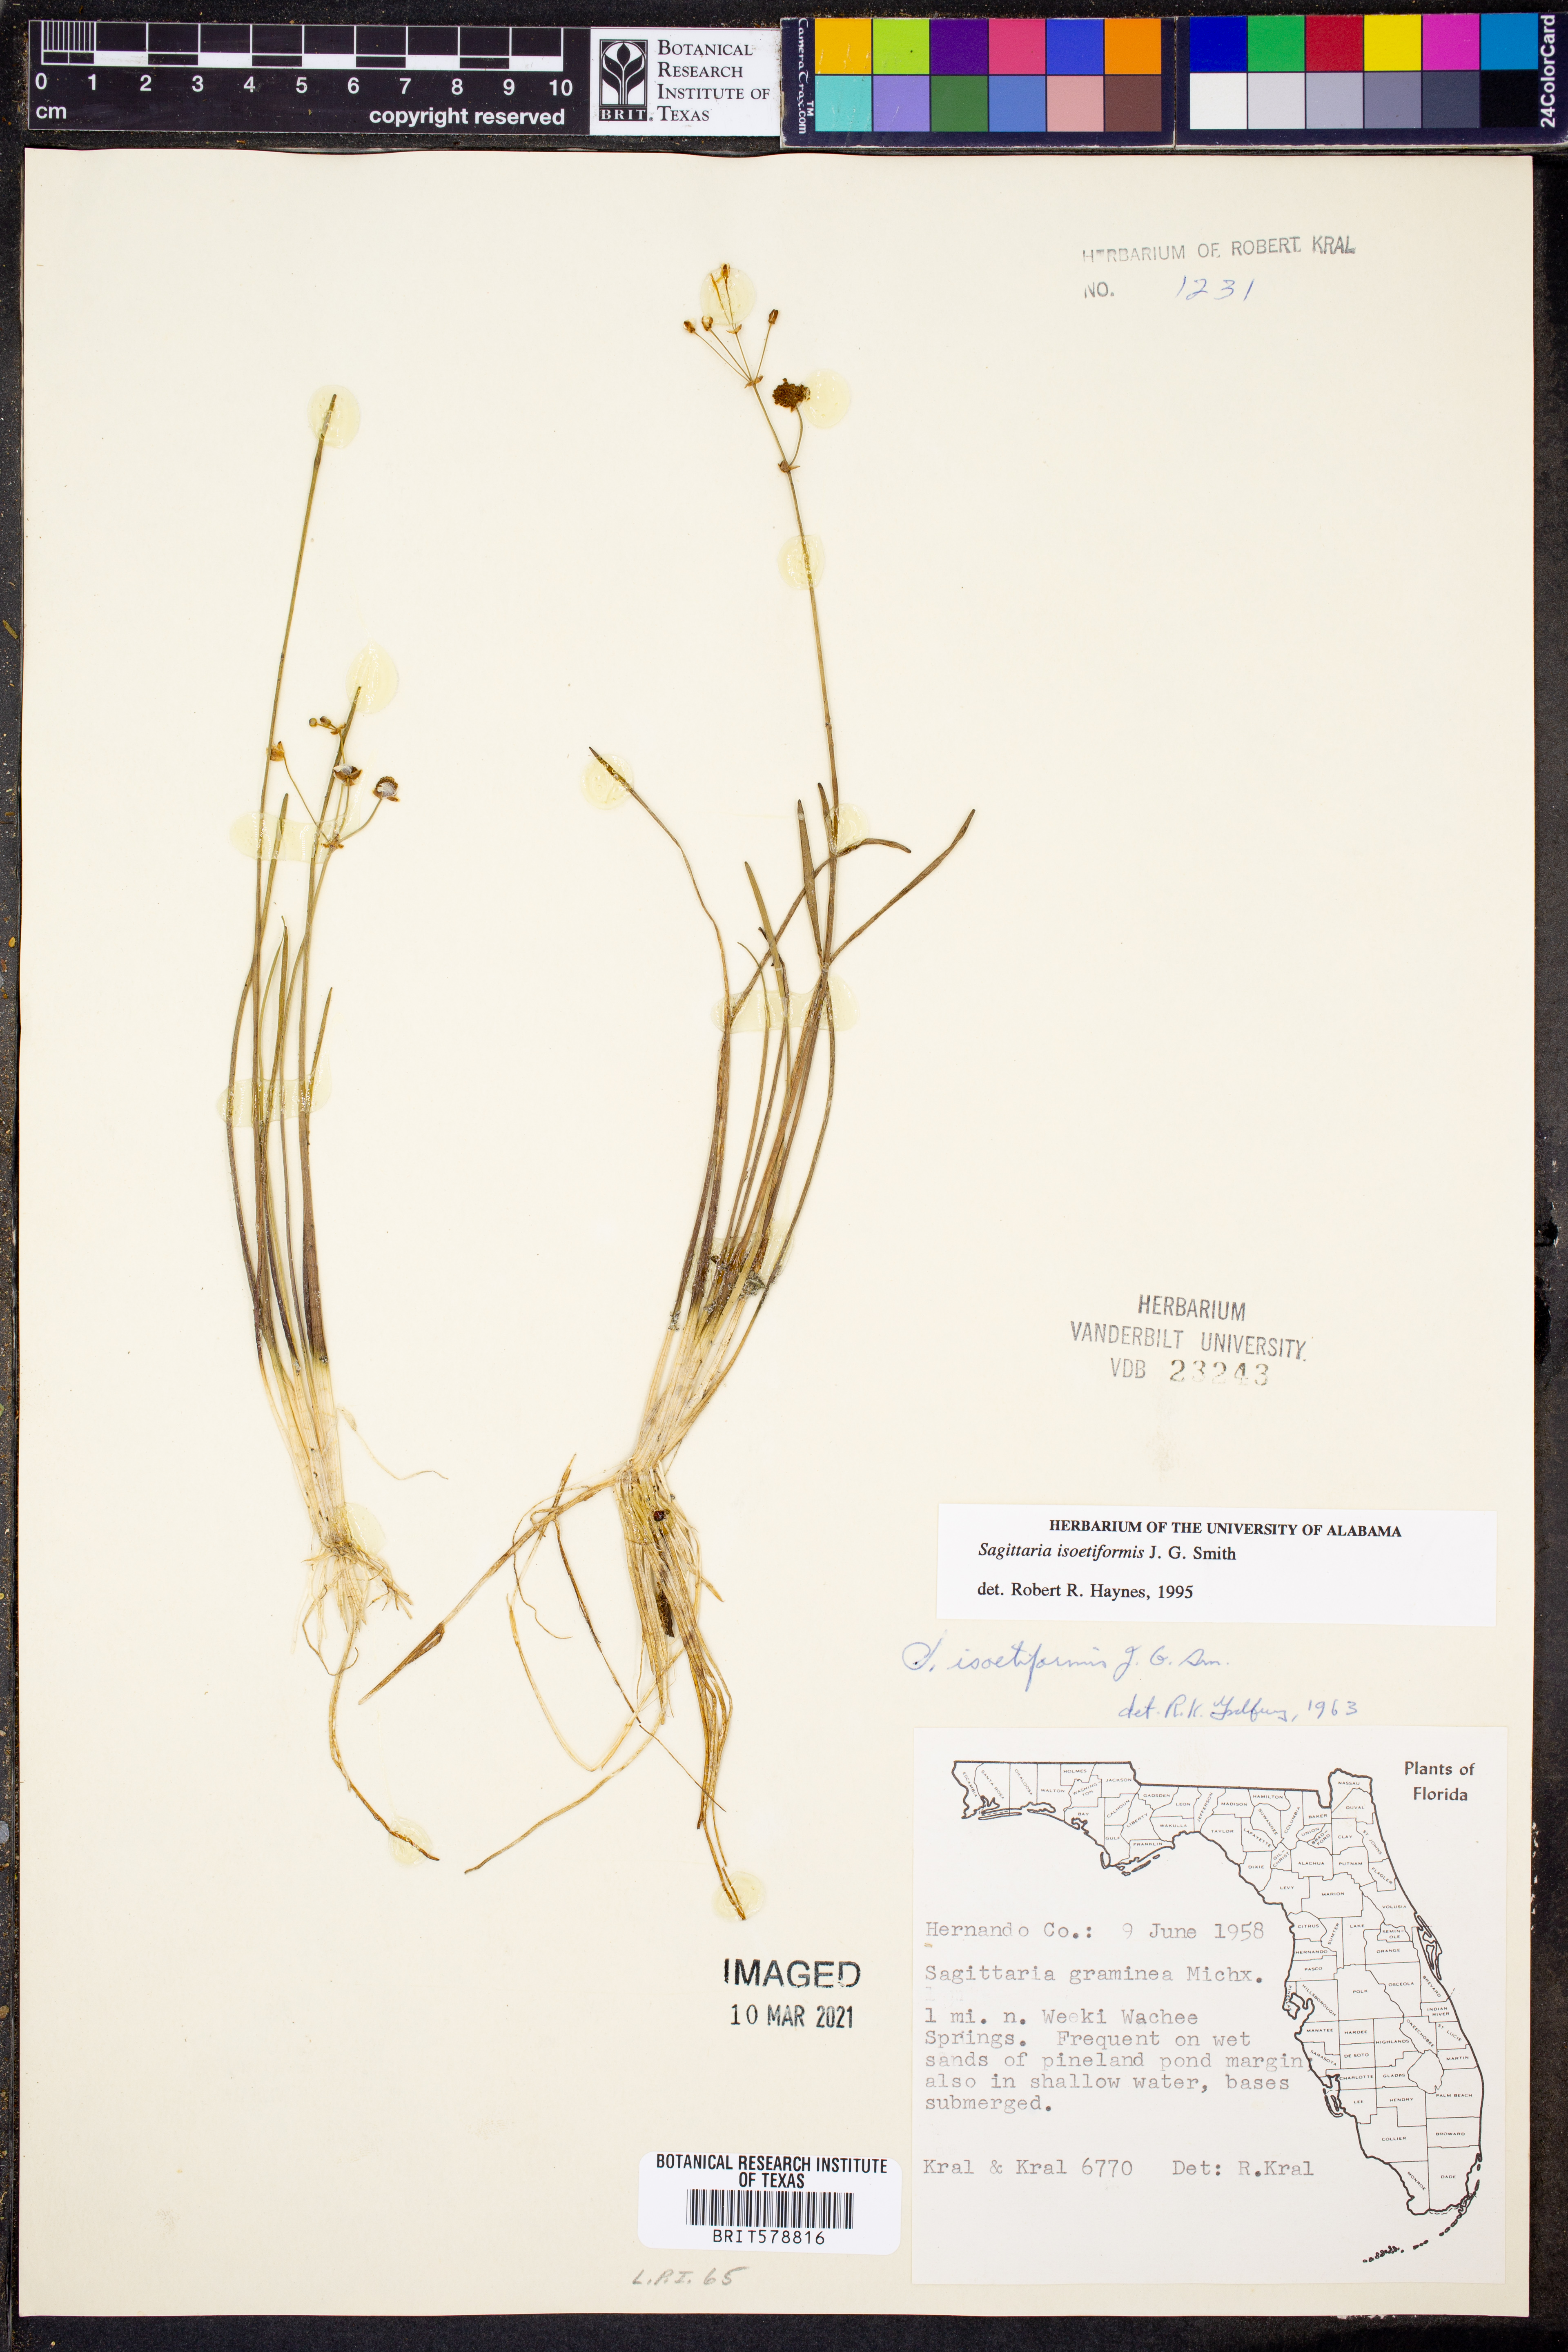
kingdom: Plantae
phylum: Tracheophyta
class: Liliopsida
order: Alismatales
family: Alismataceae
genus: Sagittaria
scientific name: Sagittaria isoetiformis
